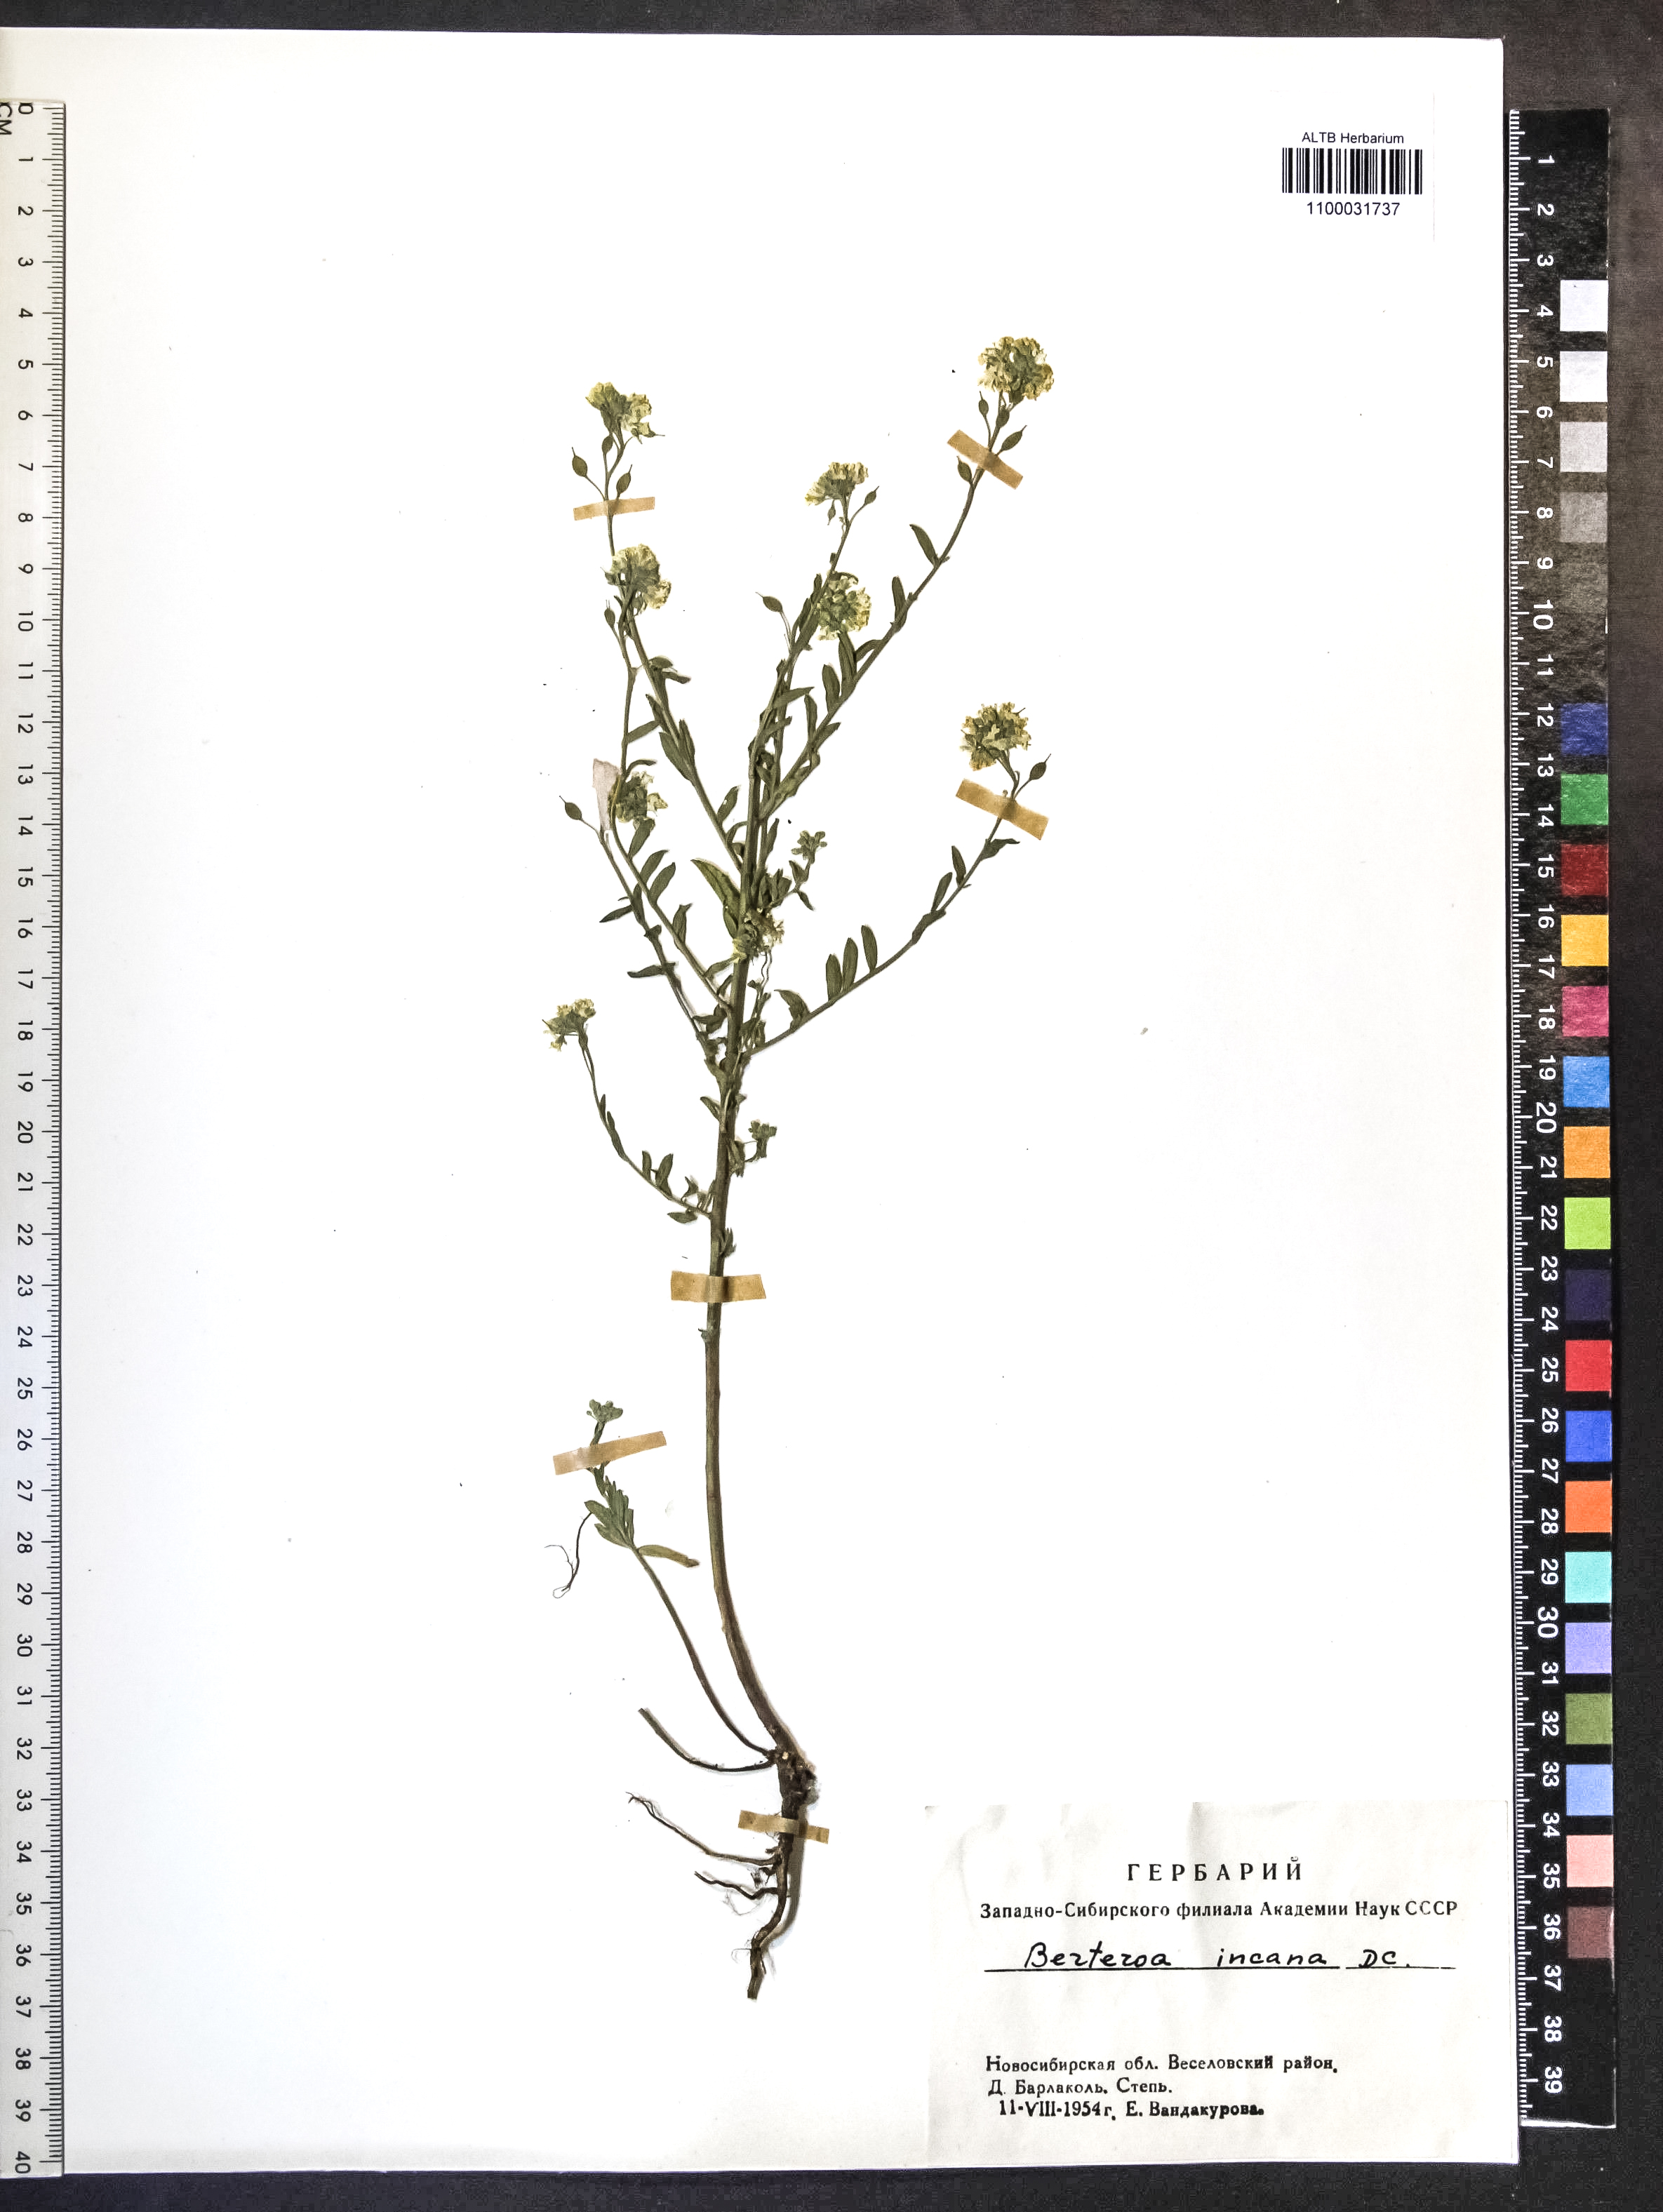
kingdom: Plantae
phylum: Tracheophyta
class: Magnoliopsida
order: Brassicales
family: Brassicaceae
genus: Berteroa
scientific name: Berteroa incana
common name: Hoary alison
